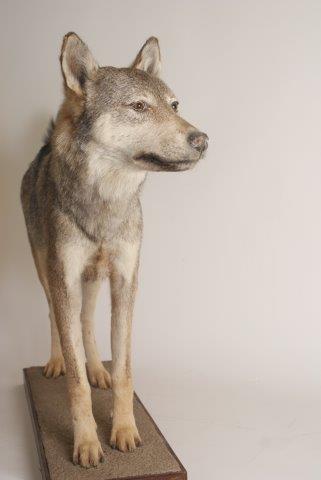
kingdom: Animalia
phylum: Chordata
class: Mammalia
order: Carnivora
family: Canidae
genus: Canis
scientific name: Canis lupus
